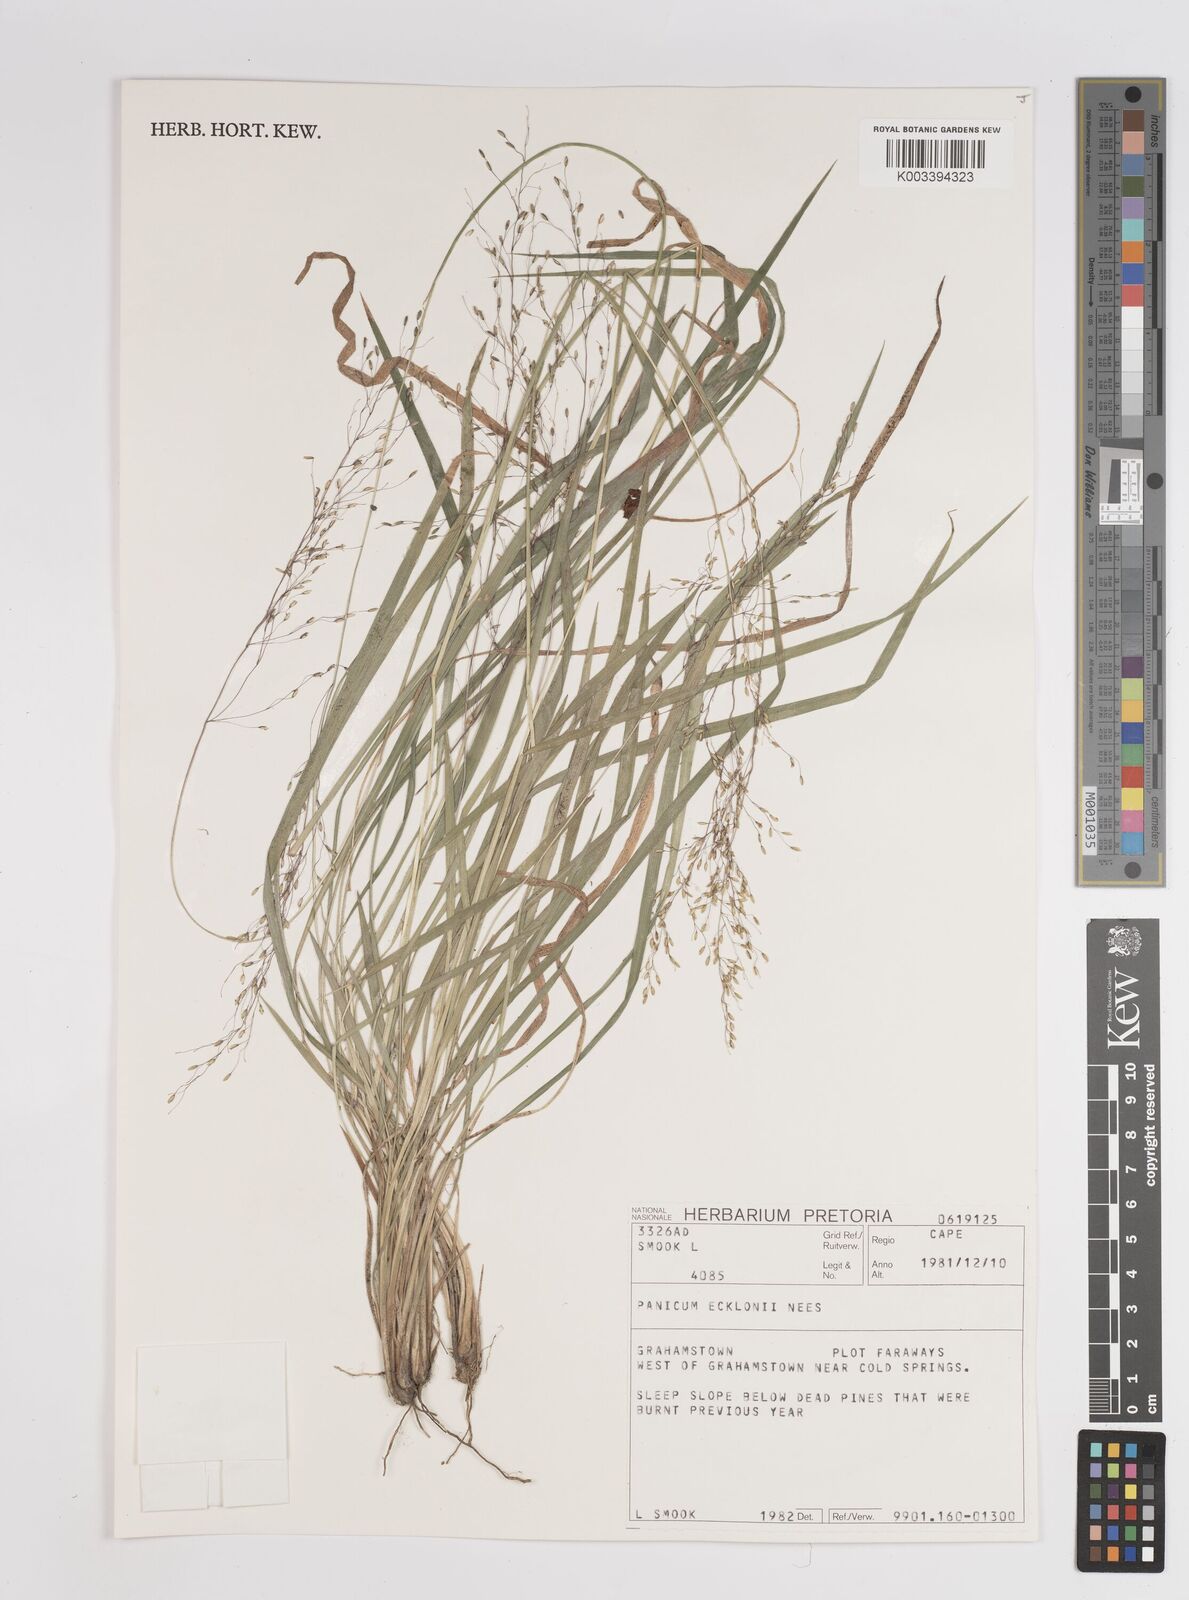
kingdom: Plantae
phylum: Tracheophyta
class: Liliopsida
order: Poales
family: Poaceae
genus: Adenochloa
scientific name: Adenochloa ecklonii
